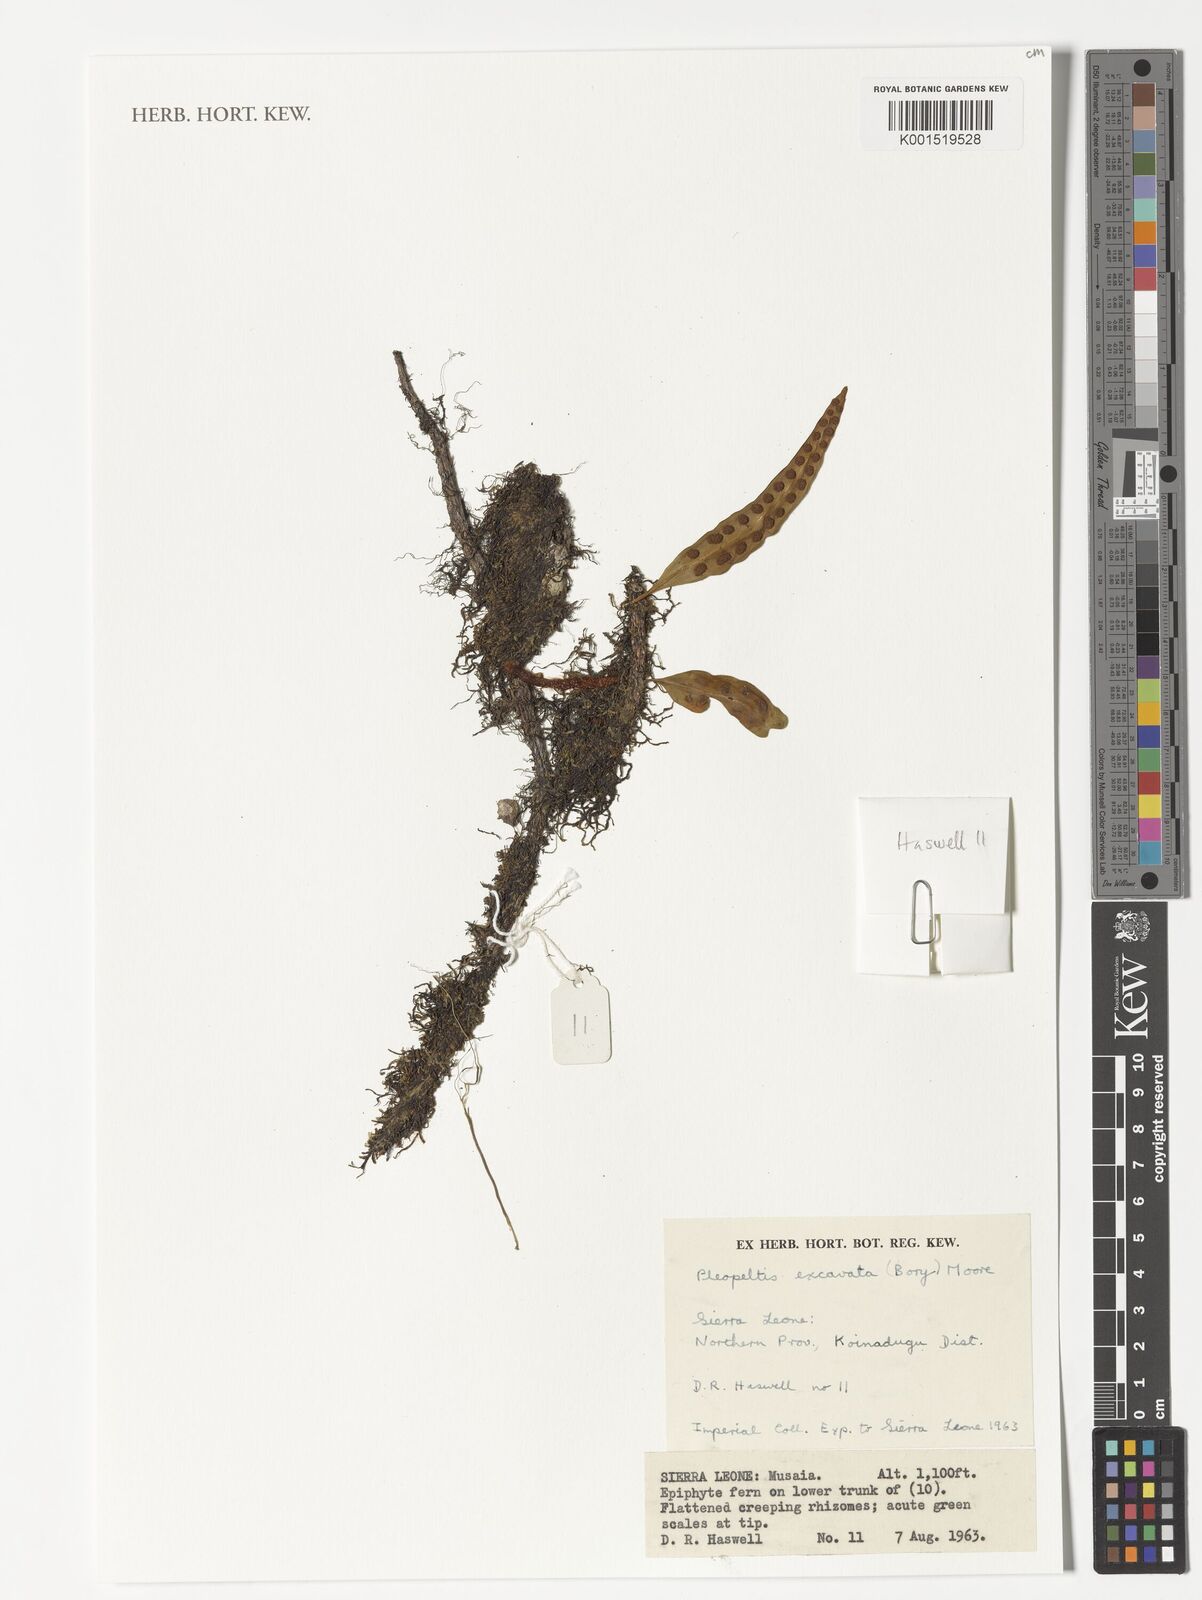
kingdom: Plantae
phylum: Tracheophyta
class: Polypodiopsida
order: Polypodiales
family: Polypodiaceae
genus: Lepisorus
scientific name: Lepisorus excavatus
